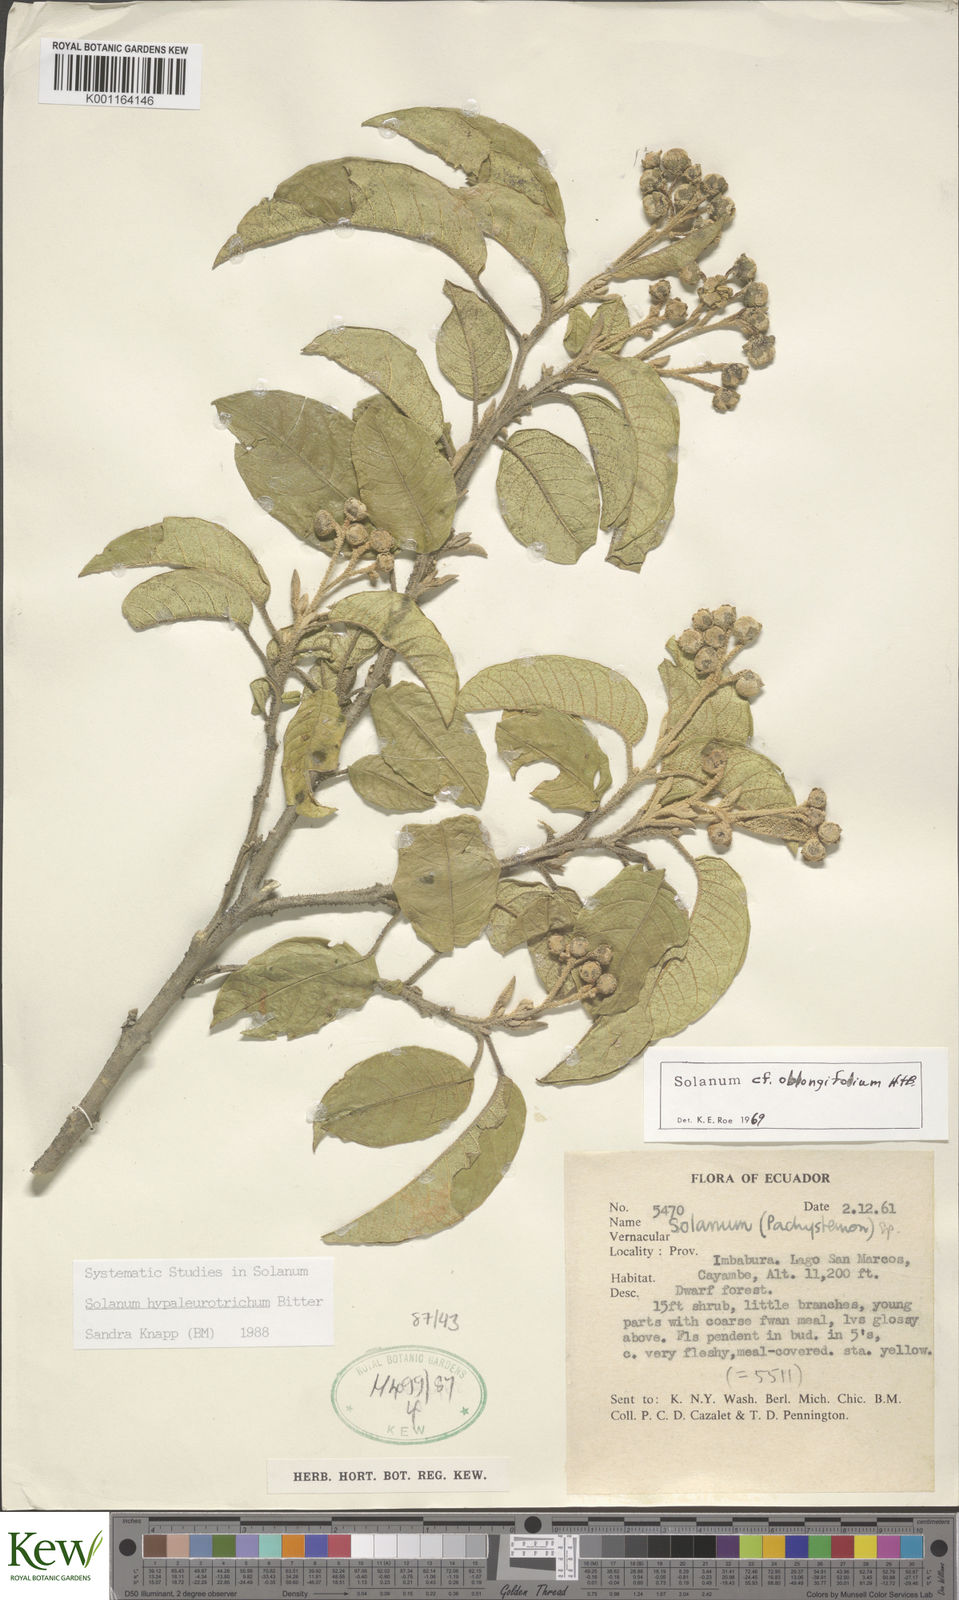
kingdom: Plantae
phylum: Tracheophyta
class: Magnoliopsida
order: Solanales
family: Solanaceae
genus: Solanum
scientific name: Solanum hypaleurotrichum
